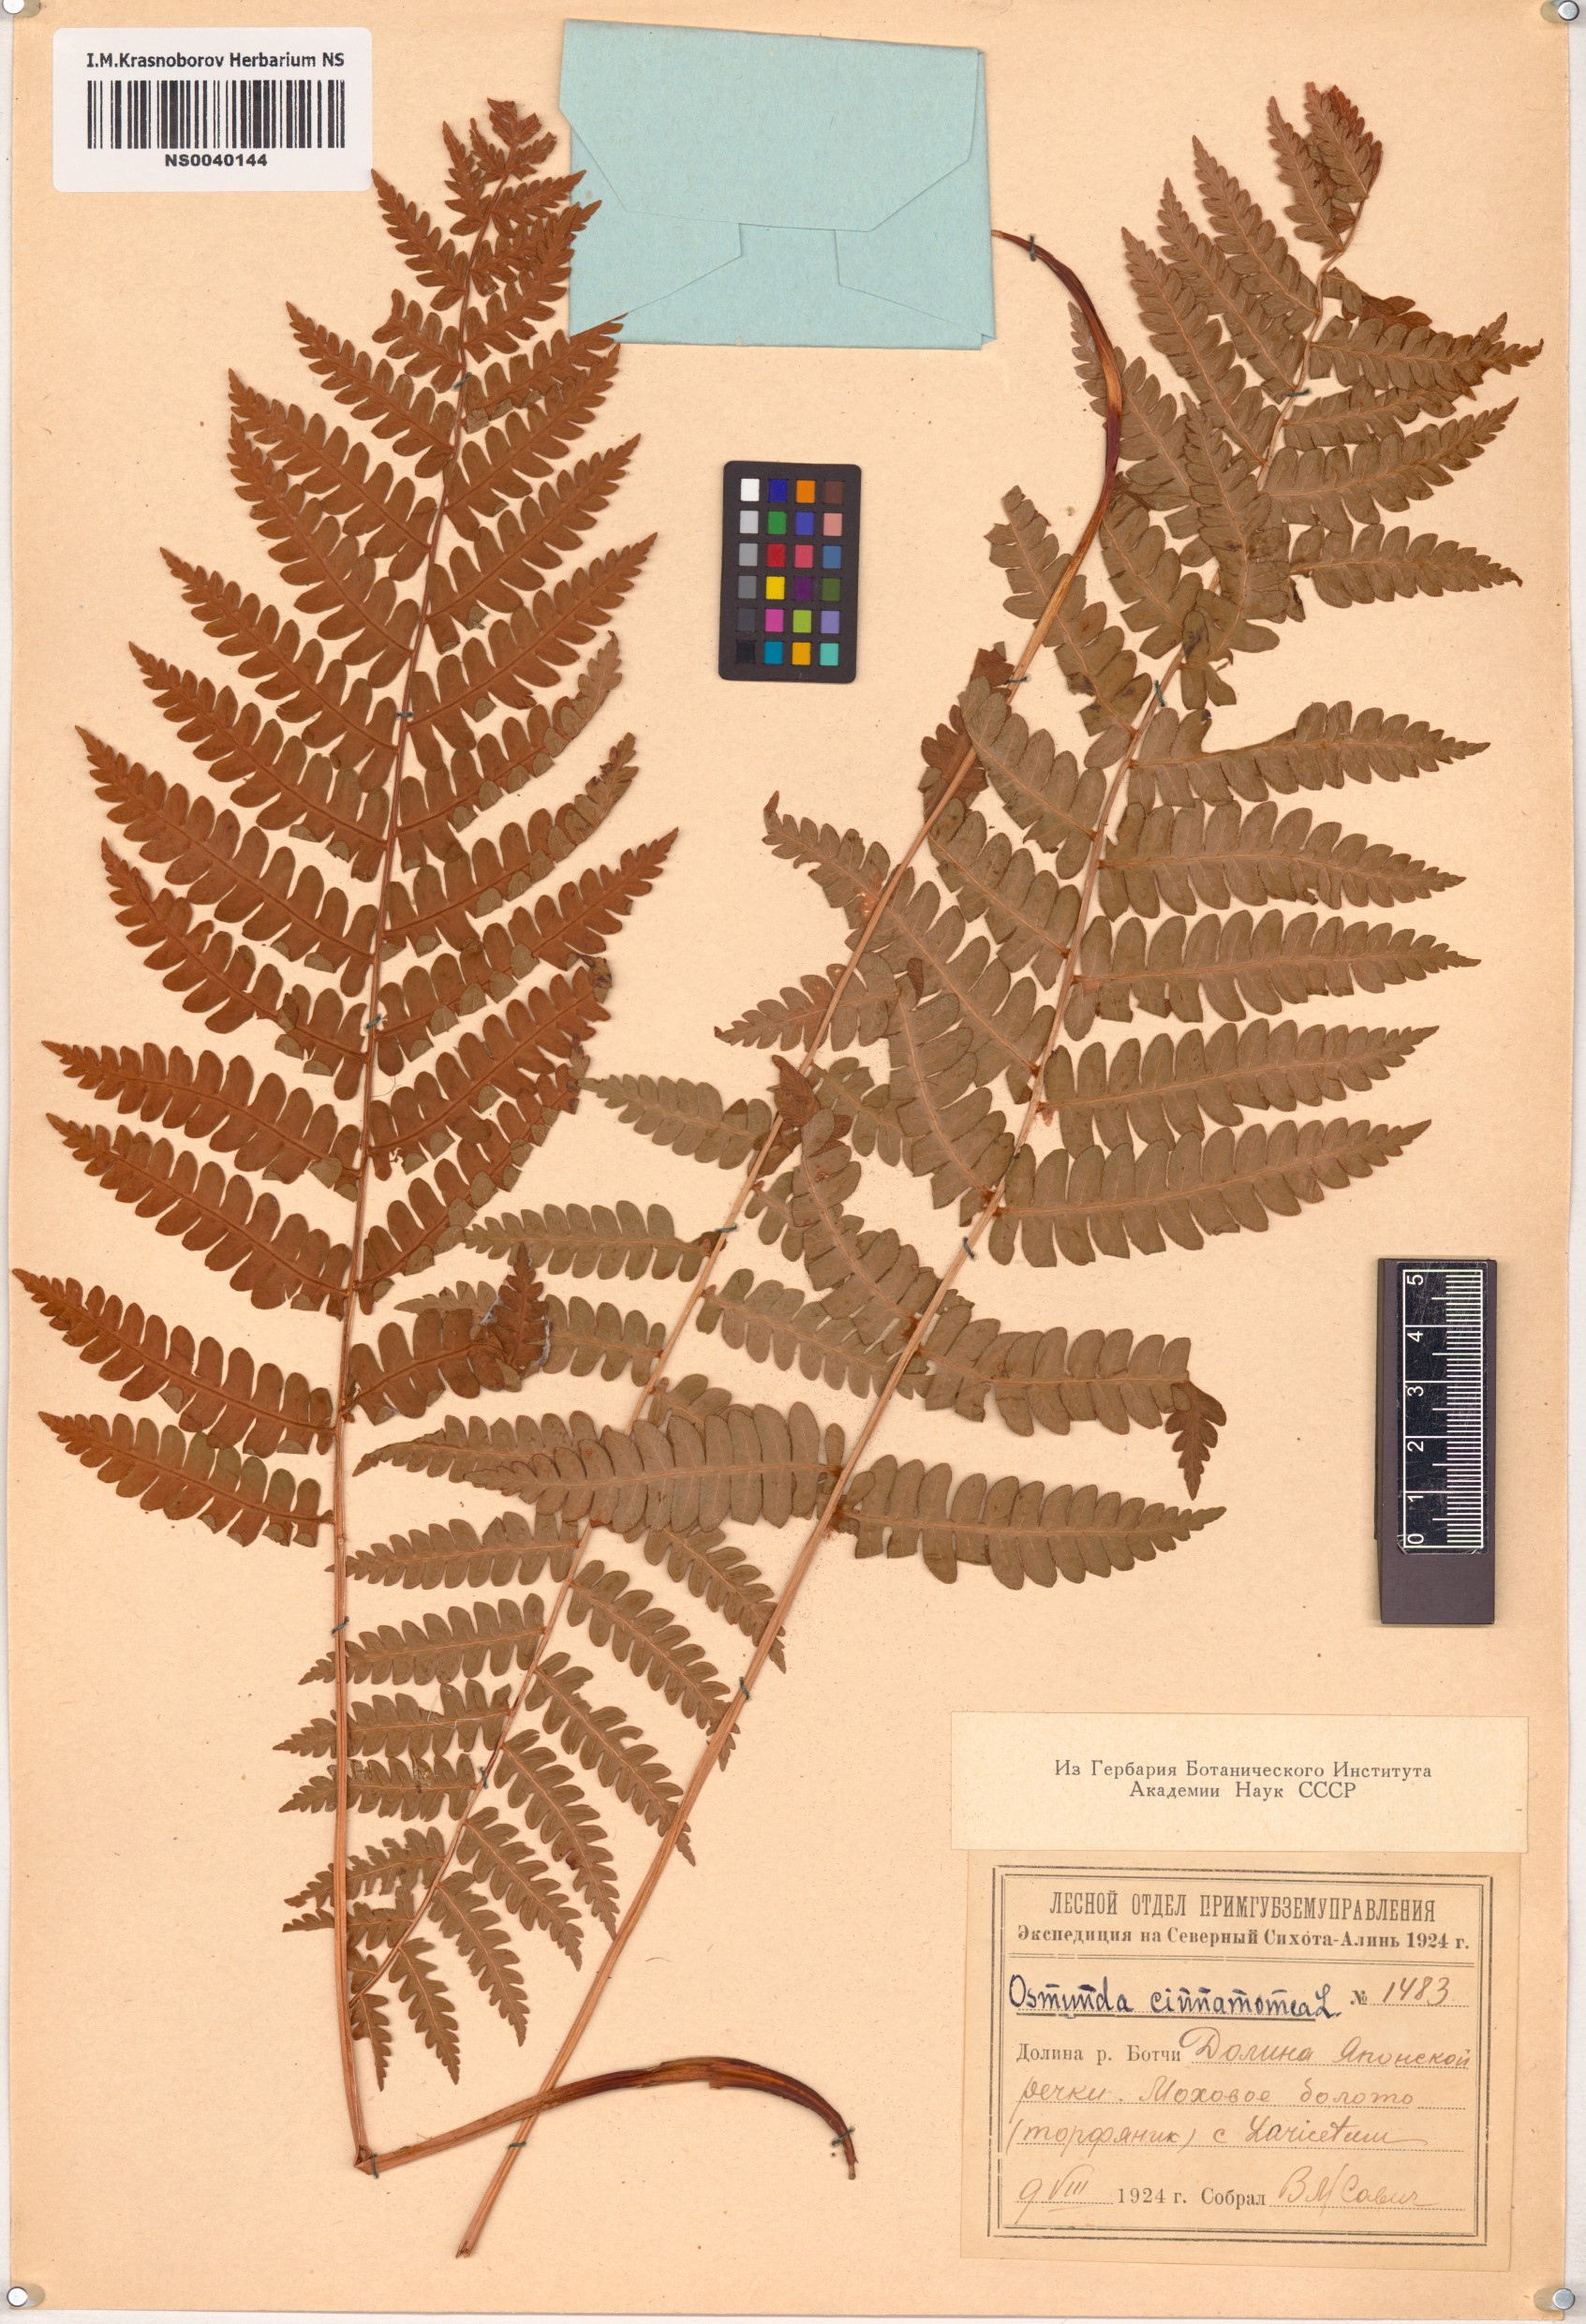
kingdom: Plantae
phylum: Tracheophyta
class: Polypodiopsida
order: Osmundales
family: Osmundaceae
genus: Osmundastrum
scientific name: Osmundastrum cinnamomeum
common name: Cinnamon fern
